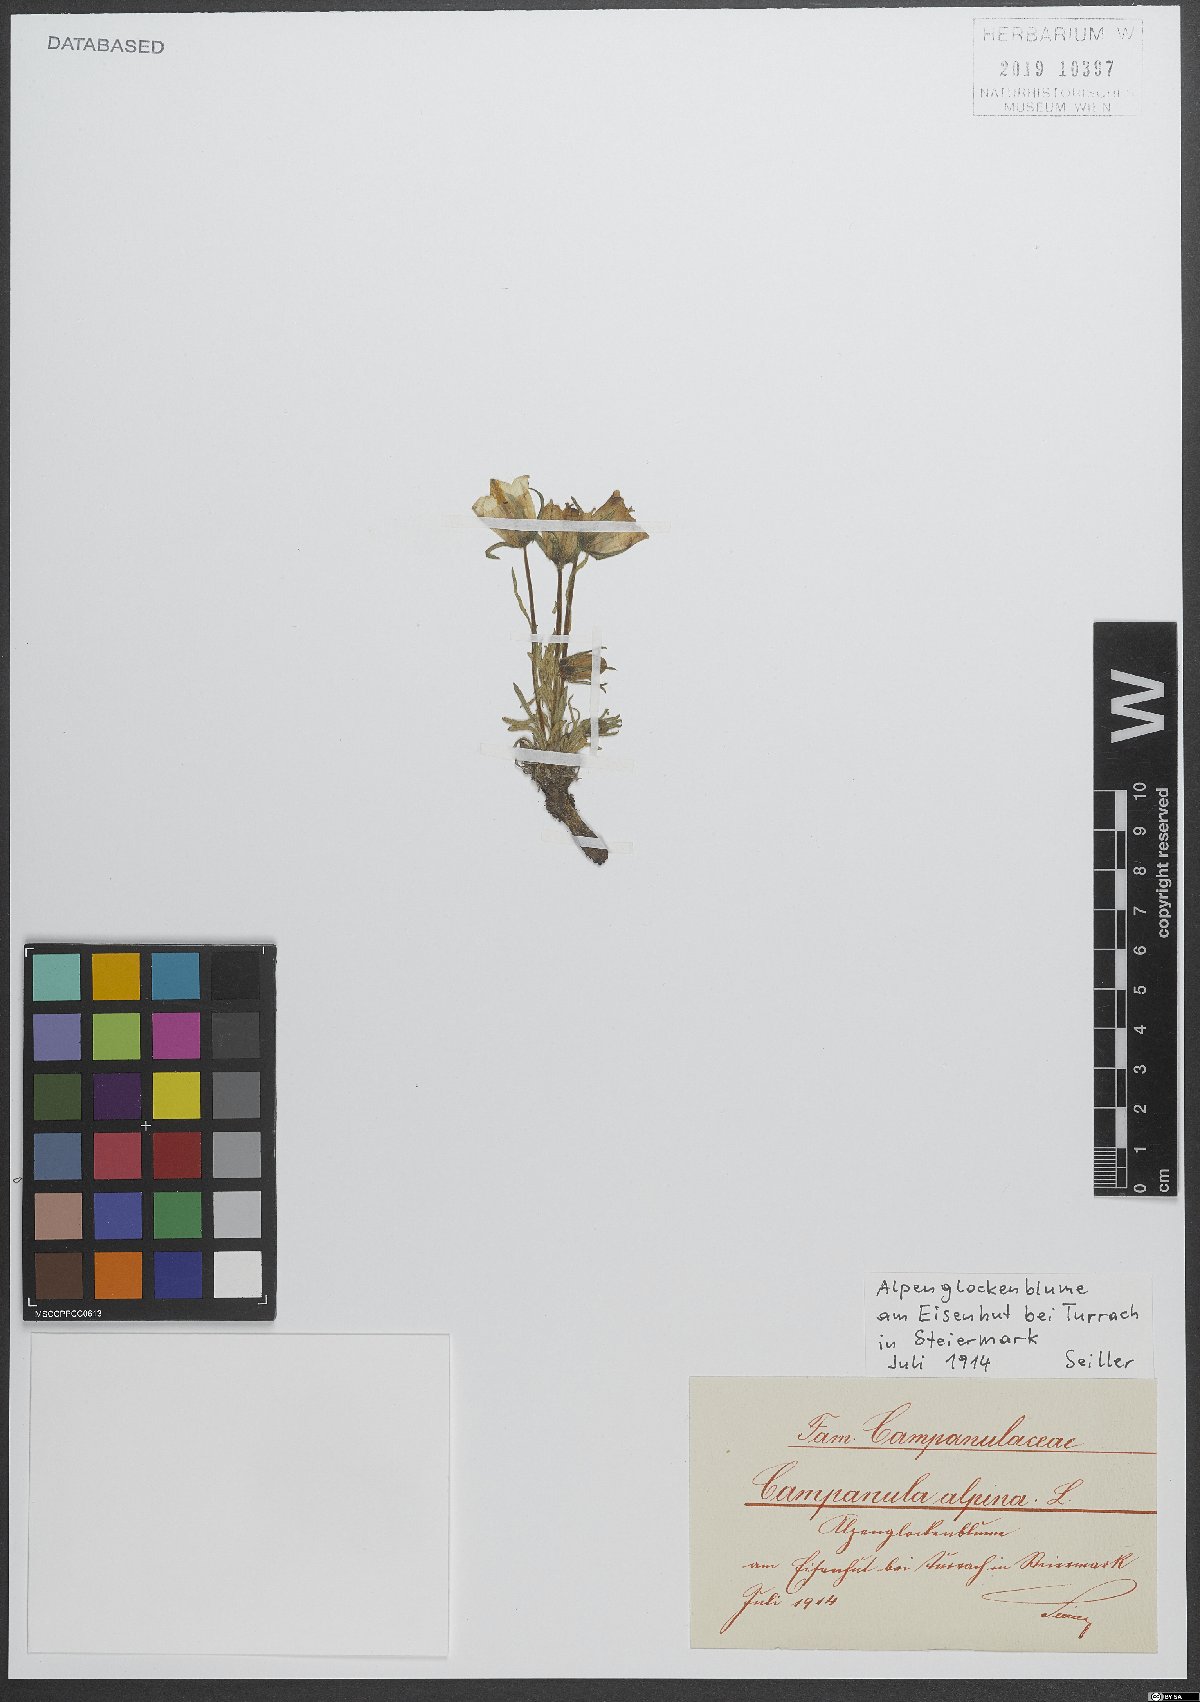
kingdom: Plantae
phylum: Tracheophyta
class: Magnoliopsida
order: Asterales
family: Campanulaceae
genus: Campanula
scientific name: Campanula alpina
